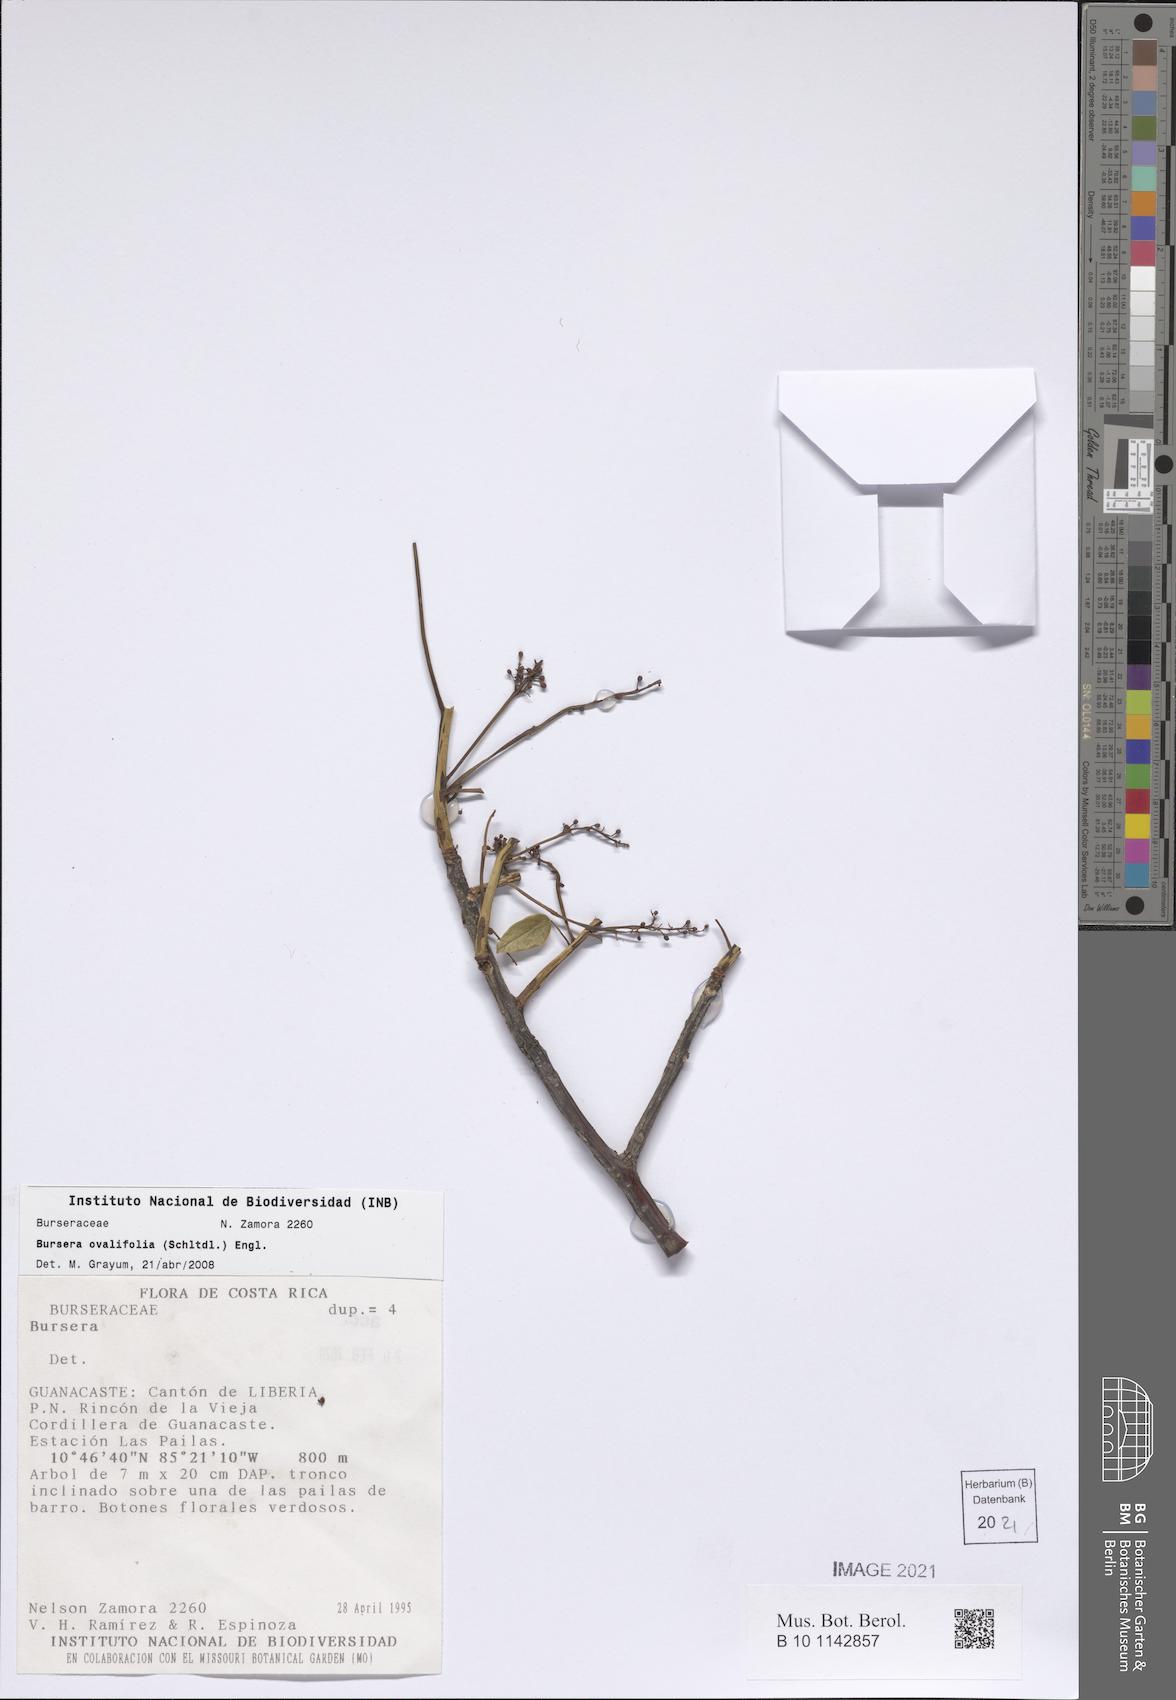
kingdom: Plantae
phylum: Tracheophyta
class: Magnoliopsida
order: Sapindales
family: Burseraceae
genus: Bursera
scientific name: Bursera ovalifolia
